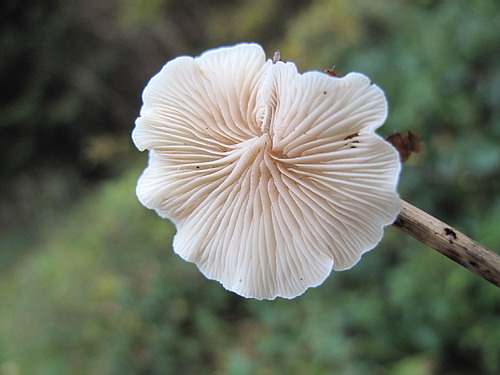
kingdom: Fungi
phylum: Basidiomycota
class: Agaricomycetes
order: Agaricales
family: Crepidotaceae
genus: Crepidotus
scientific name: Crepidotus luteolus
